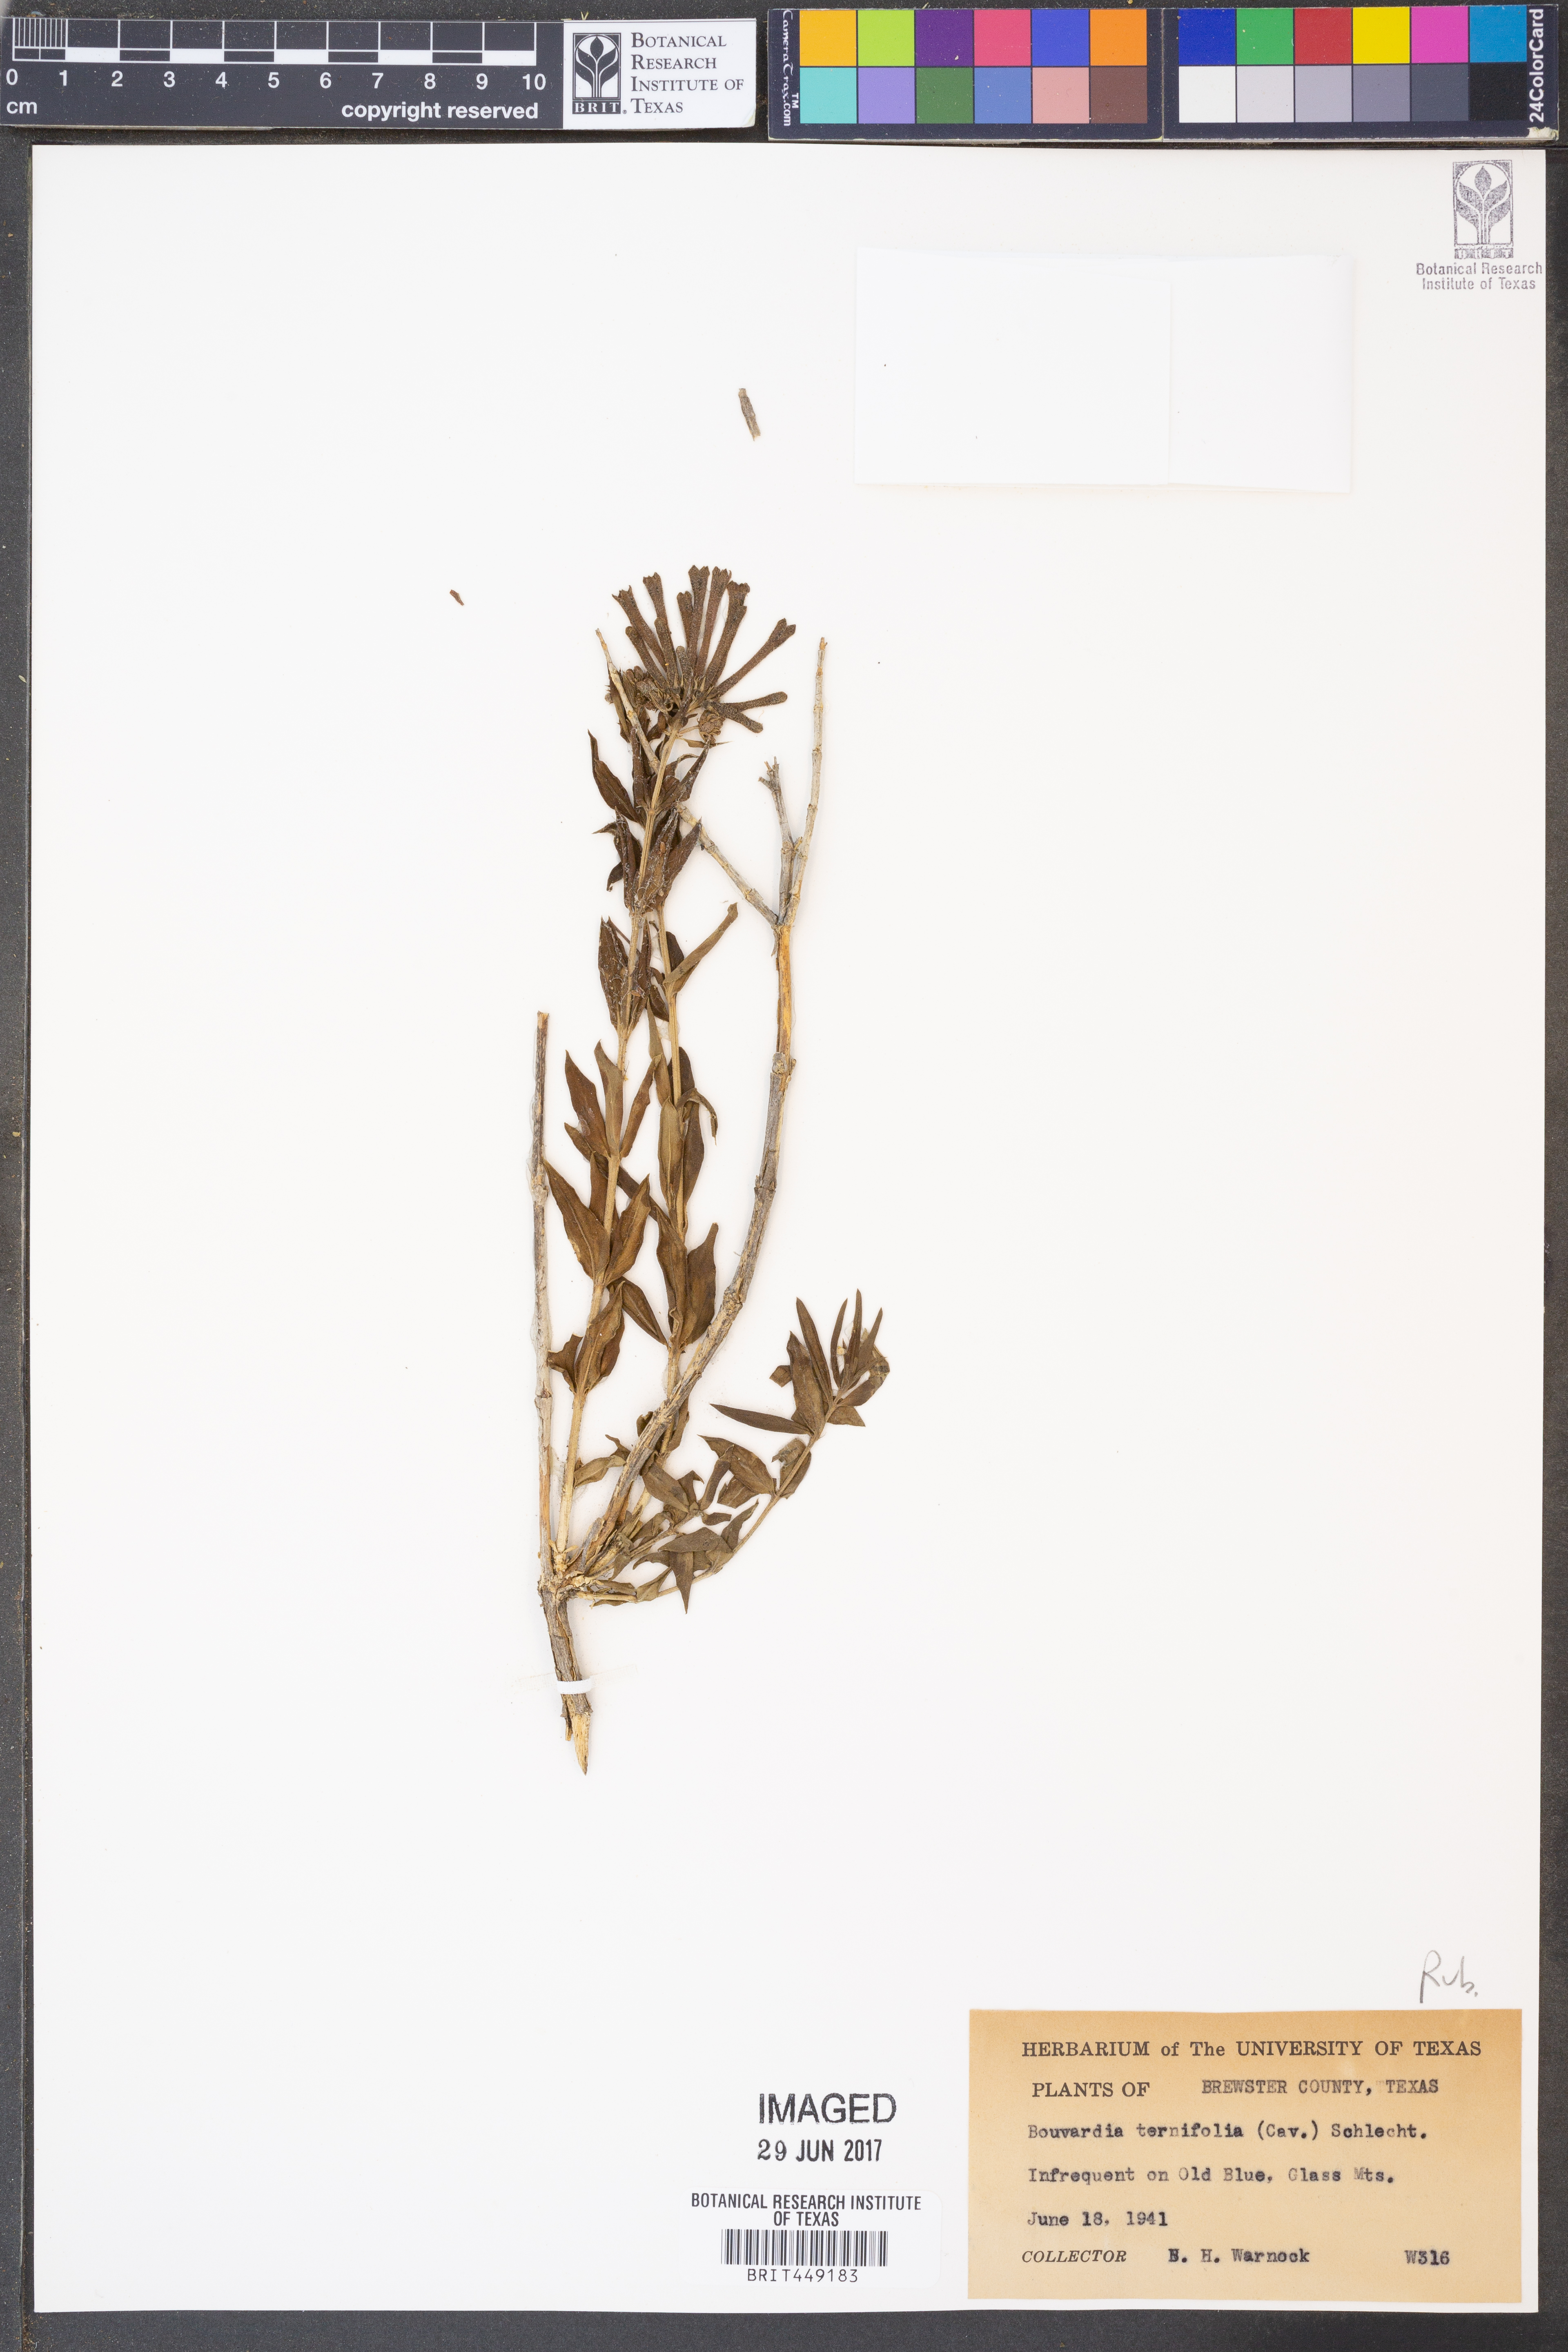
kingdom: Plantae
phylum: Tracheophyta
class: Magnoliopsida
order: Gentianales
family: Rubiaceae
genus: Bouvardia
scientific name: Bouvardia ternifolia
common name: Scarlet bouvardia
